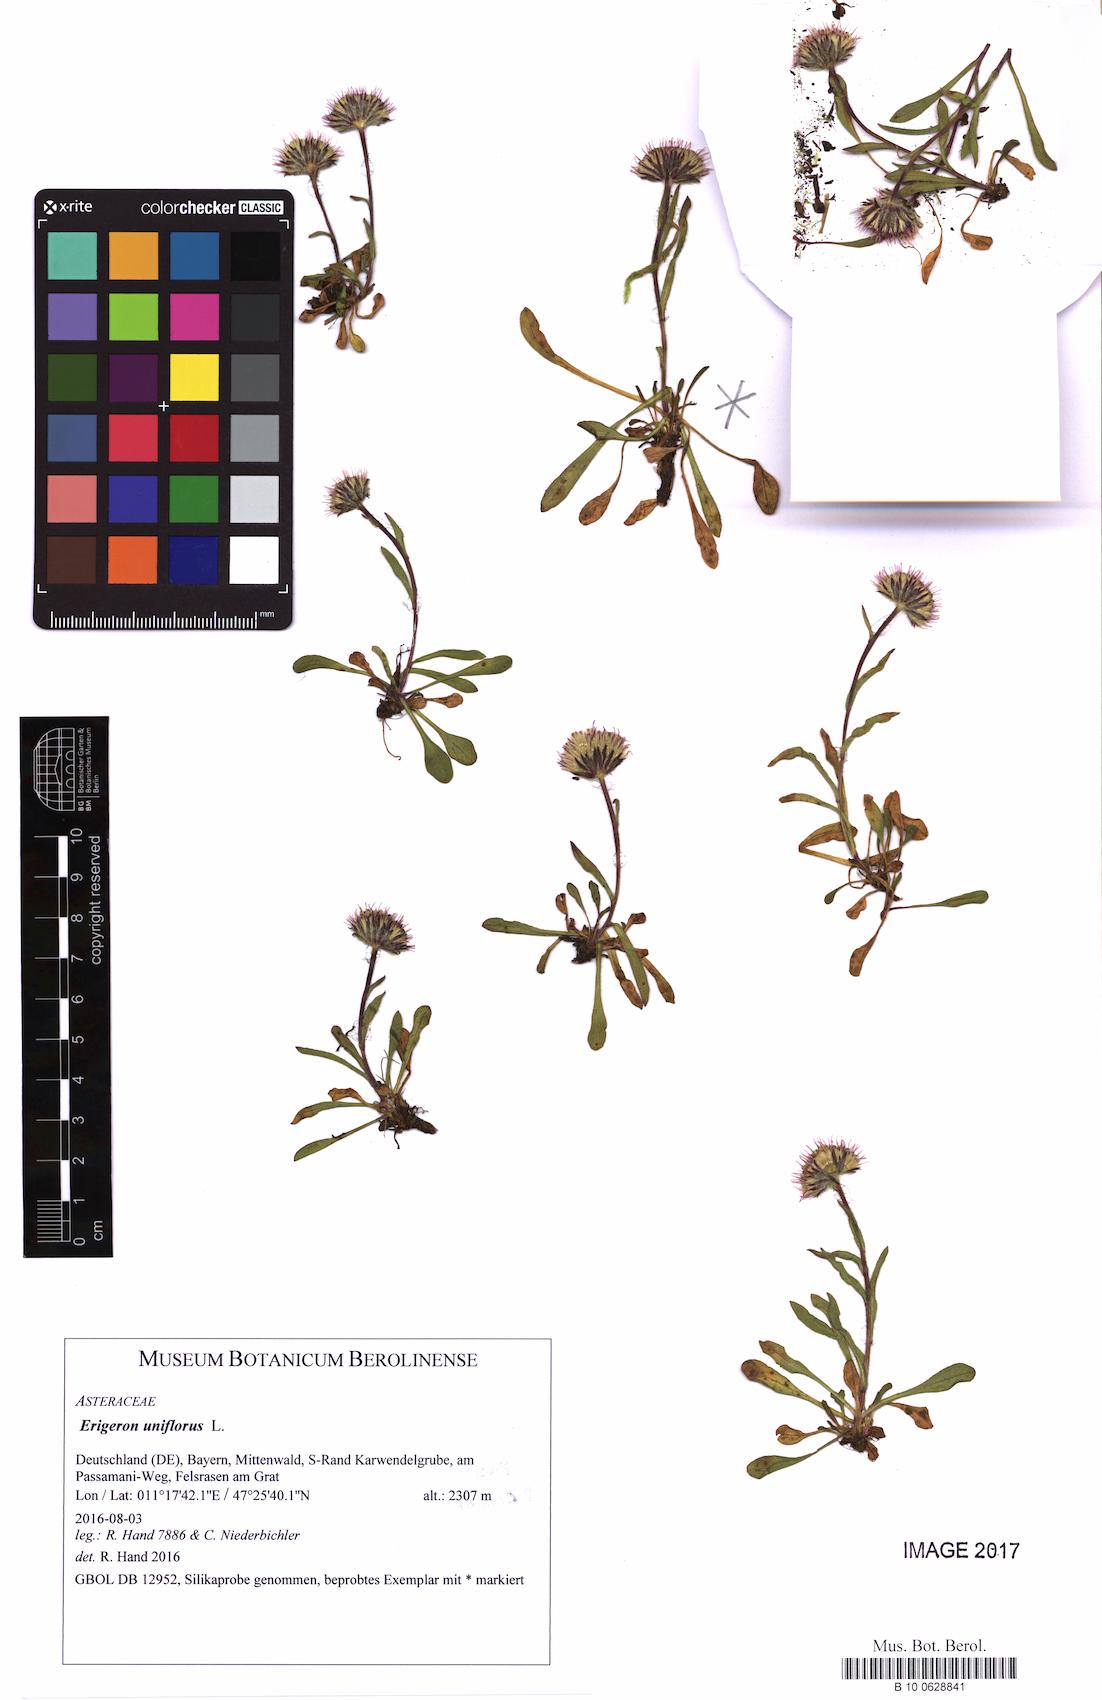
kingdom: Plantae
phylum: Tracheophyta
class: Magnoliopsida
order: Asterales
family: Asteraceae
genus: Erigeron
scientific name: Erigeron uniflorus
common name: Northern daisy
